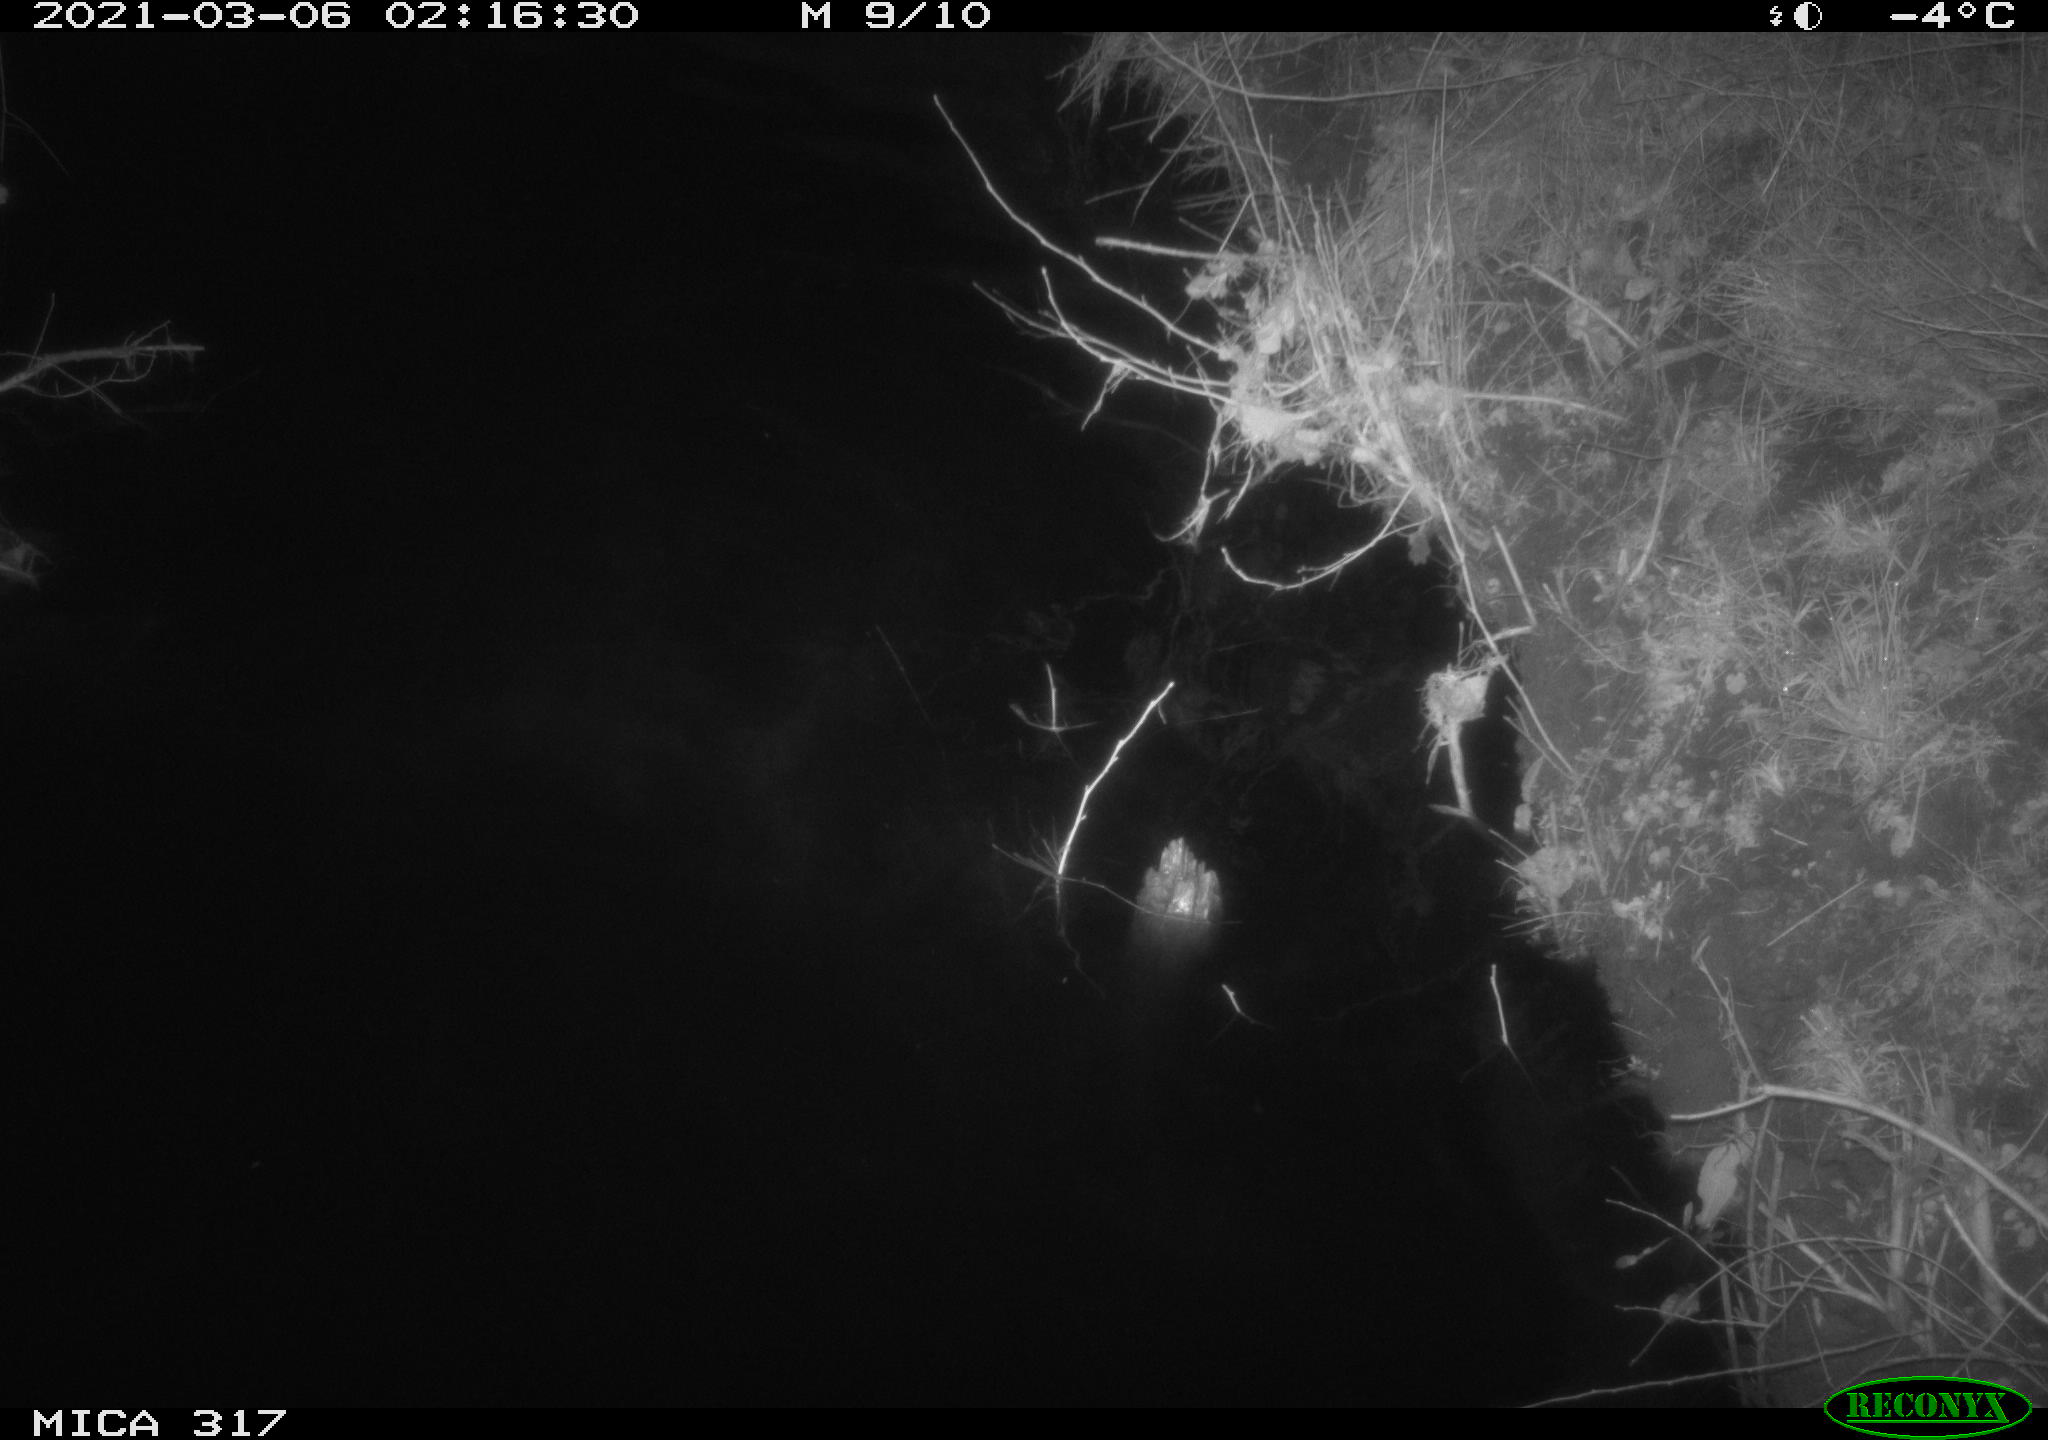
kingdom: Animalia
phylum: Chordata
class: Aves
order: Anseriformes
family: Anatidae
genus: Anas
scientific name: Anas platyrhynchos
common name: Mallard
